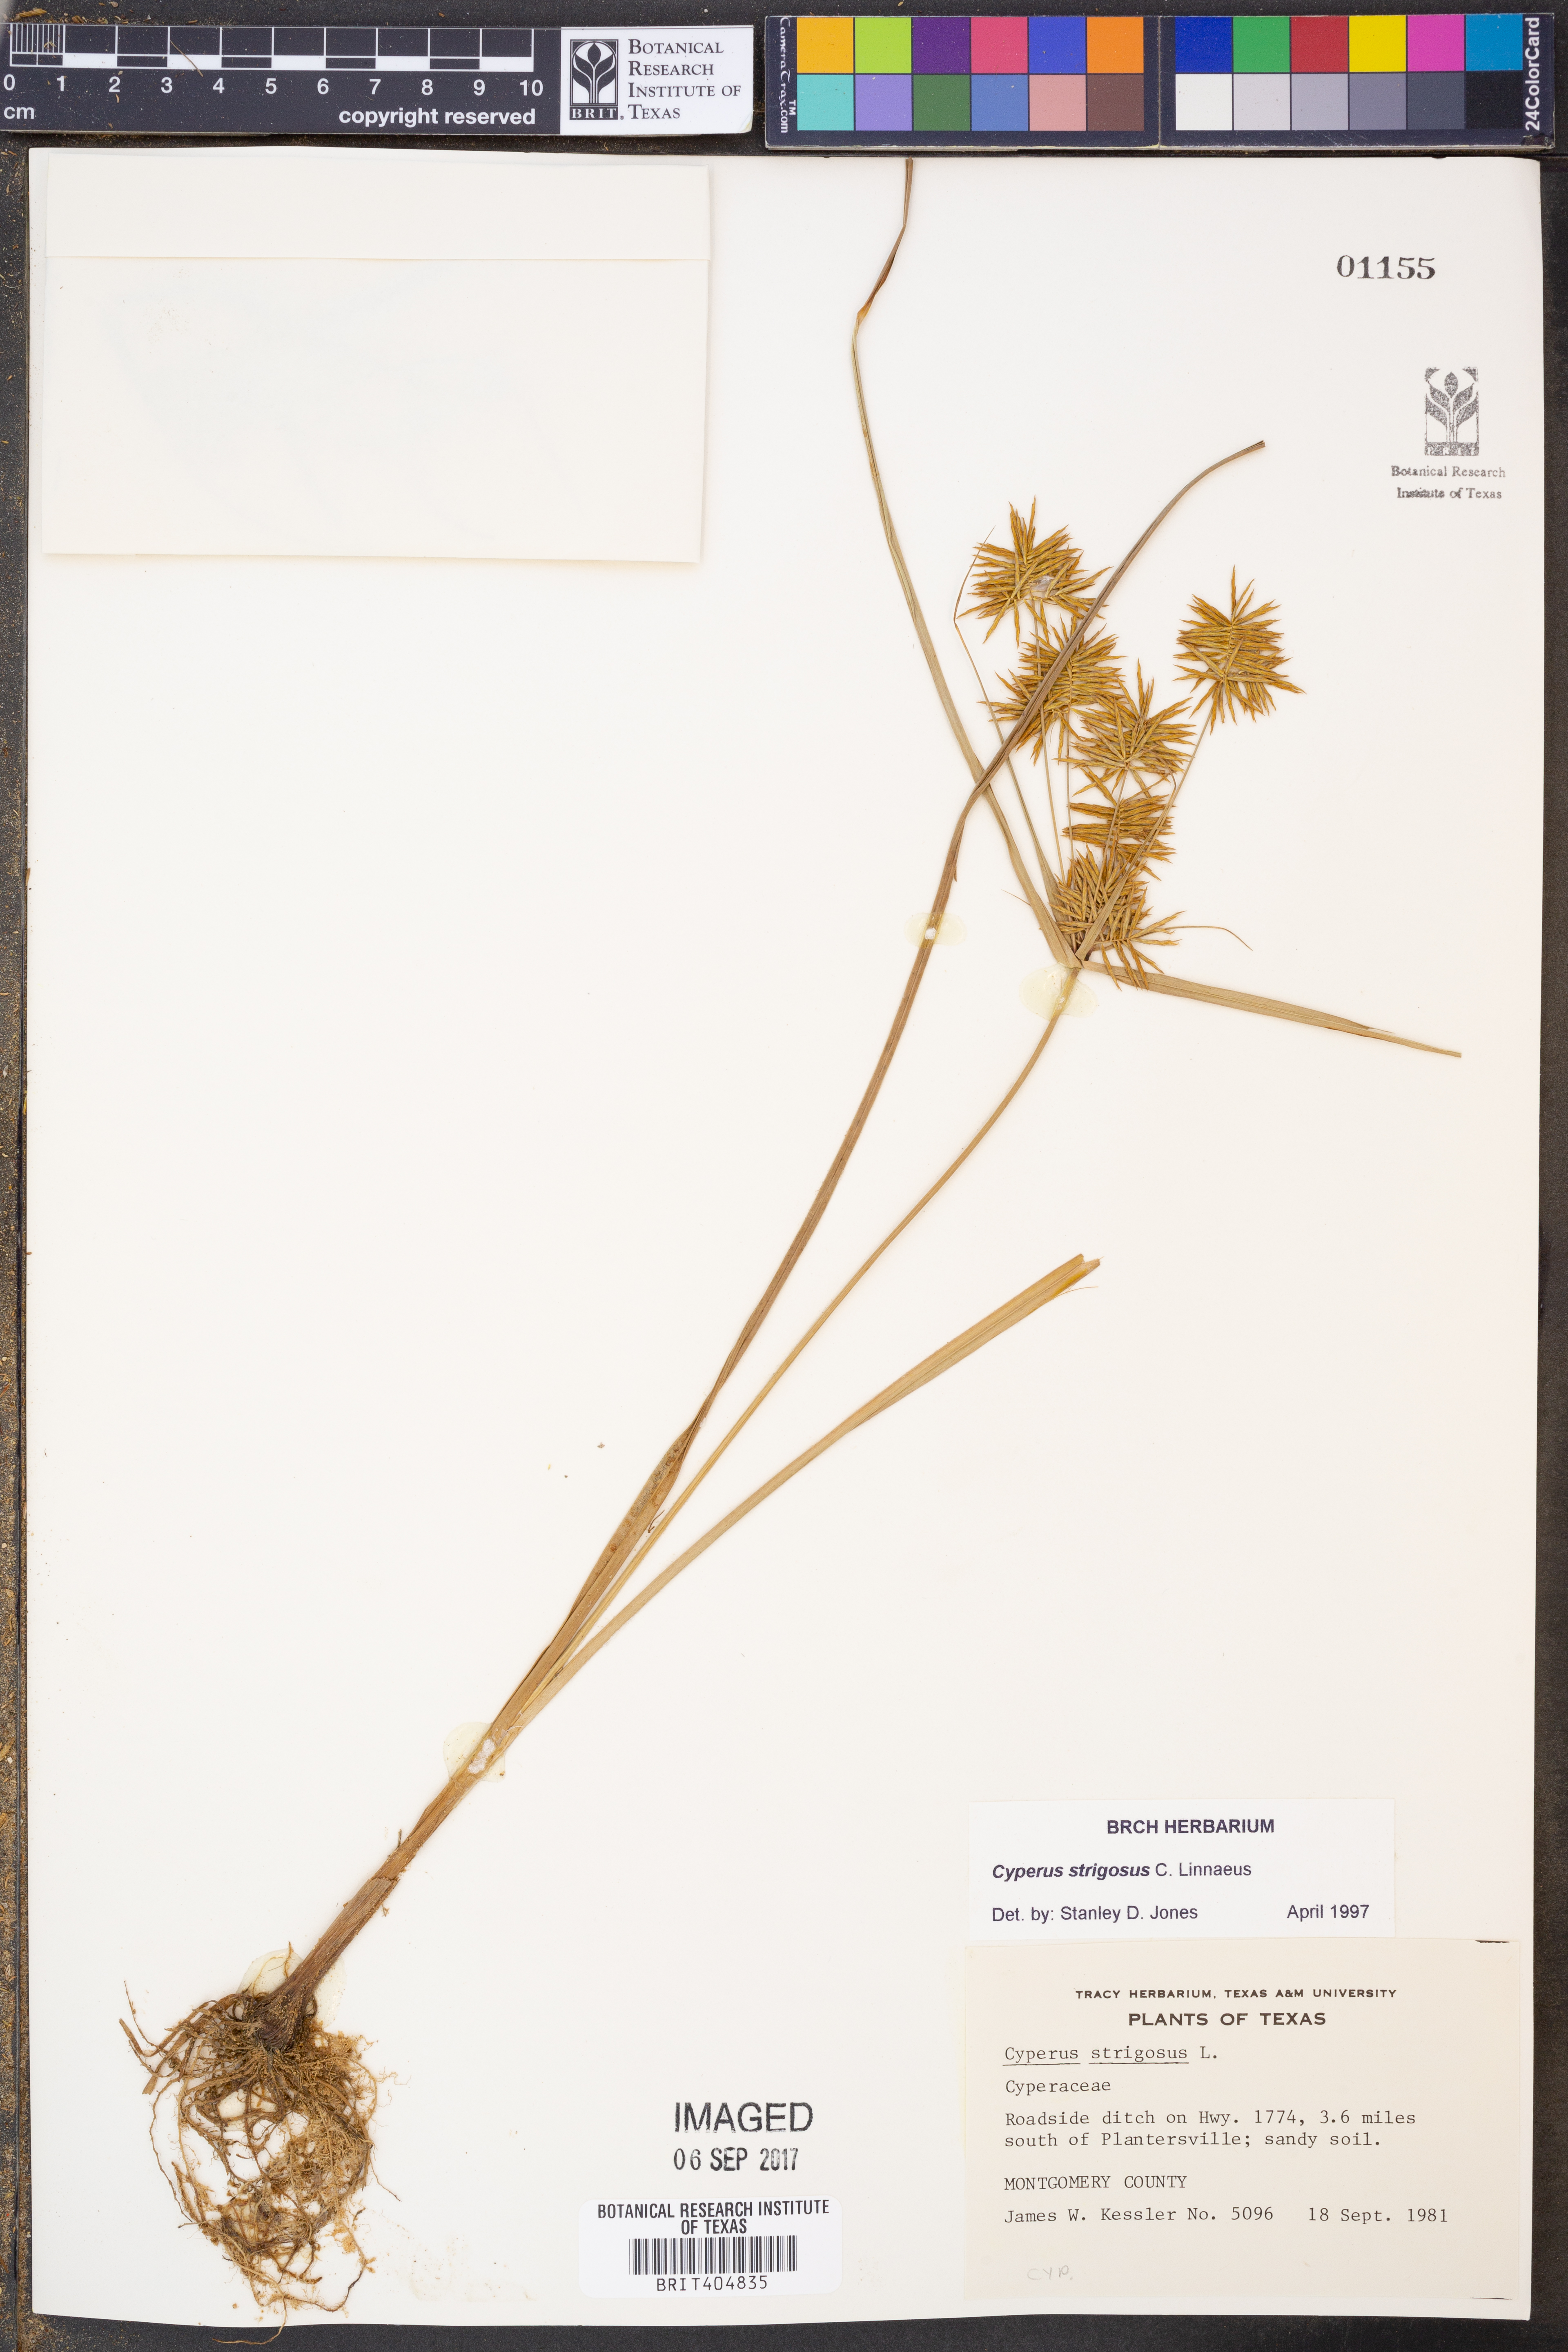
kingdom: Plantae
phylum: Tracheophyta
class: Liliopsida
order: Poales
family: Cyperaceae
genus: Cyperus
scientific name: Cyperus strigosus
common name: False nutsedge
